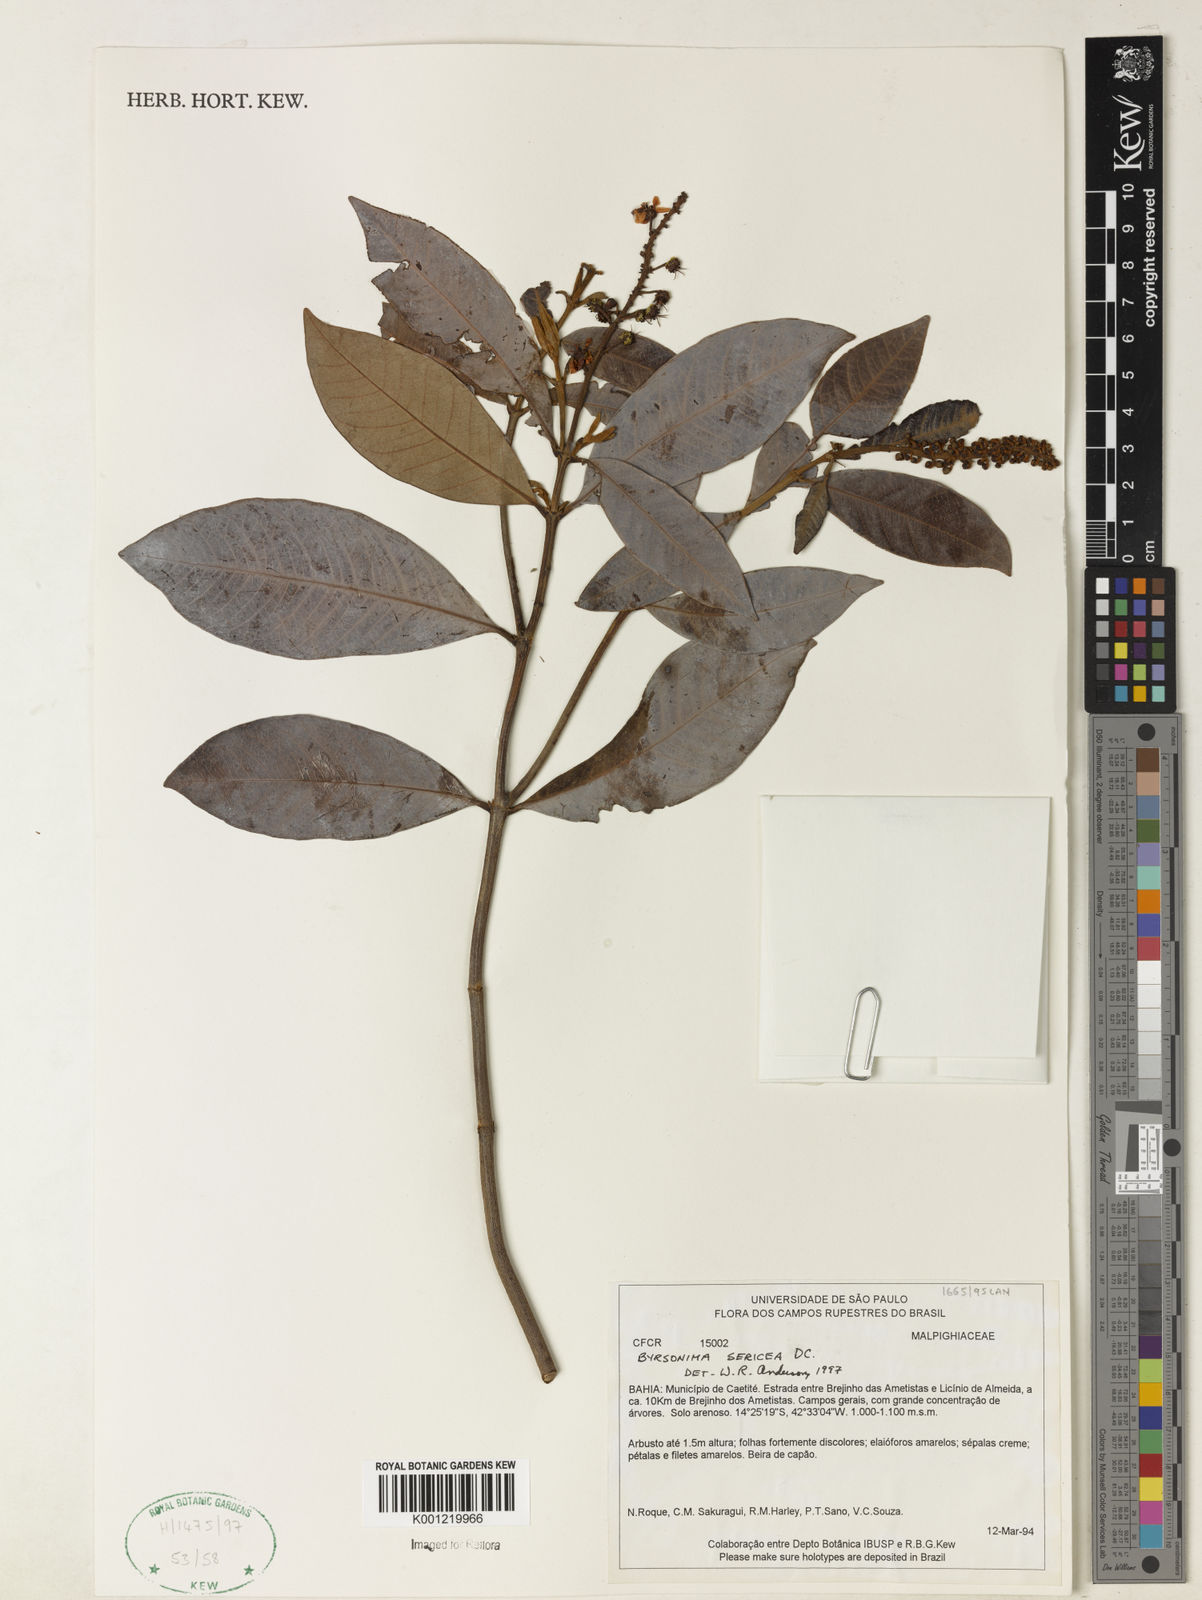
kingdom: Plantae
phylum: Tracheophyta
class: Magnoliopsida
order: Malpighiales
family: Malpighiaceae
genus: Byrsonima
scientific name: Byrsonima sericea
